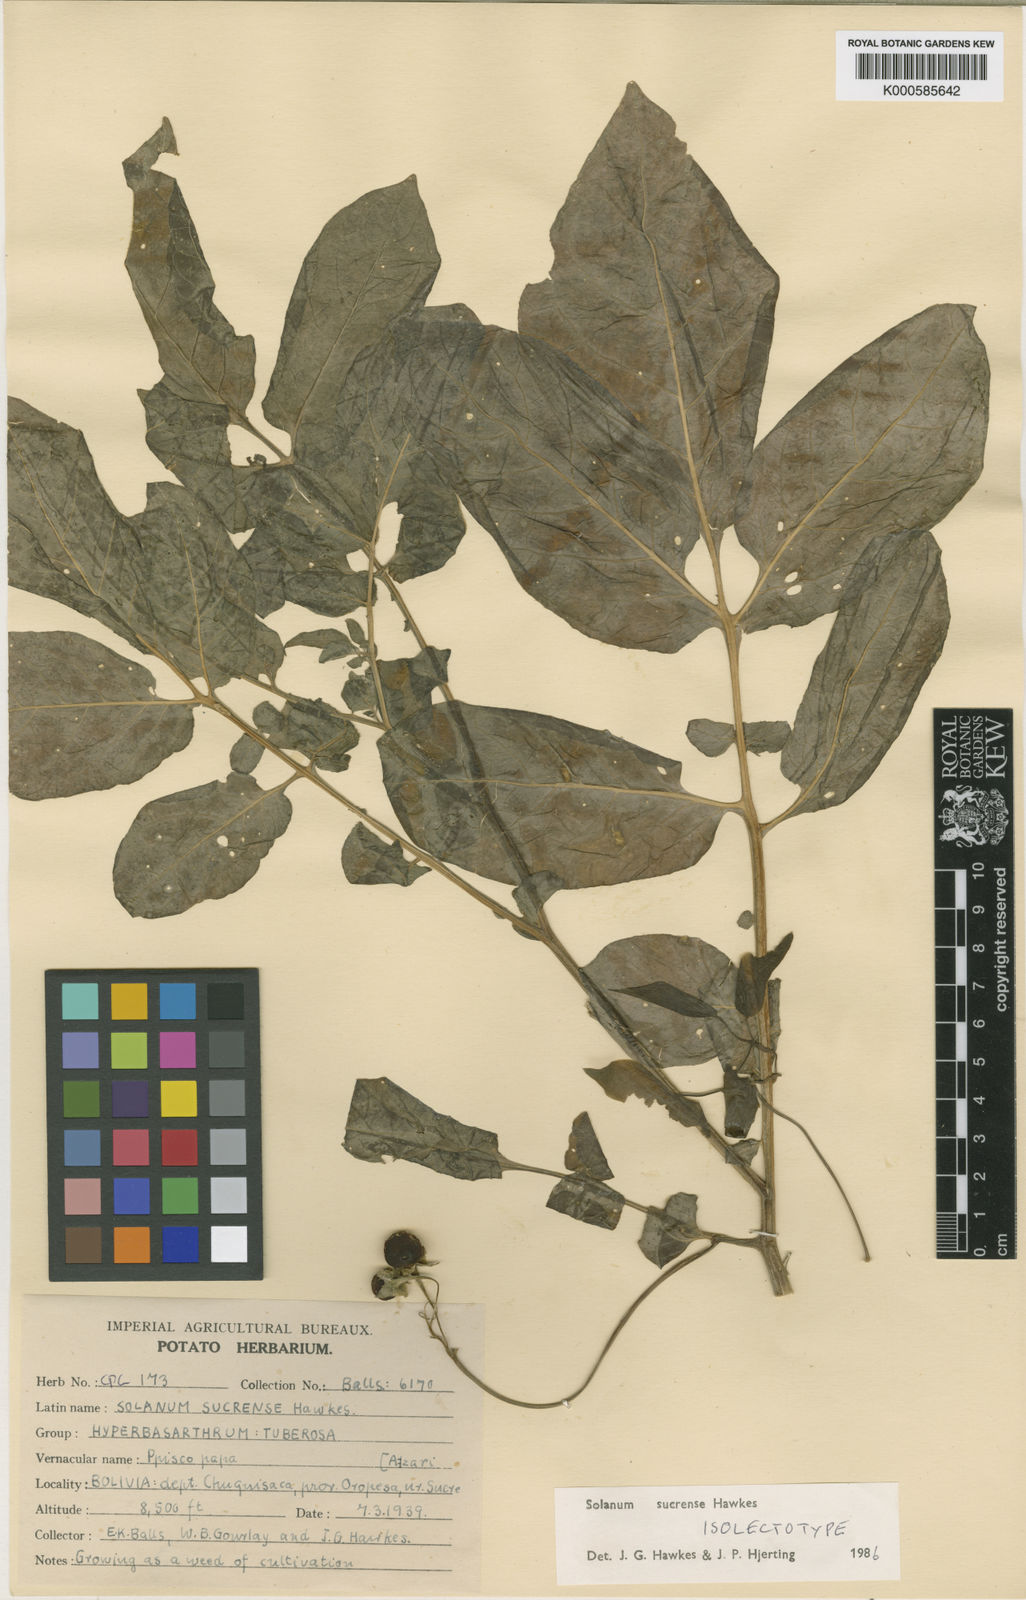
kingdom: Plantae
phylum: Tracheophyta
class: Magnoliopsida
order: Solanales
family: Solanaceae
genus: Solanum
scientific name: Solanum brevicaule
